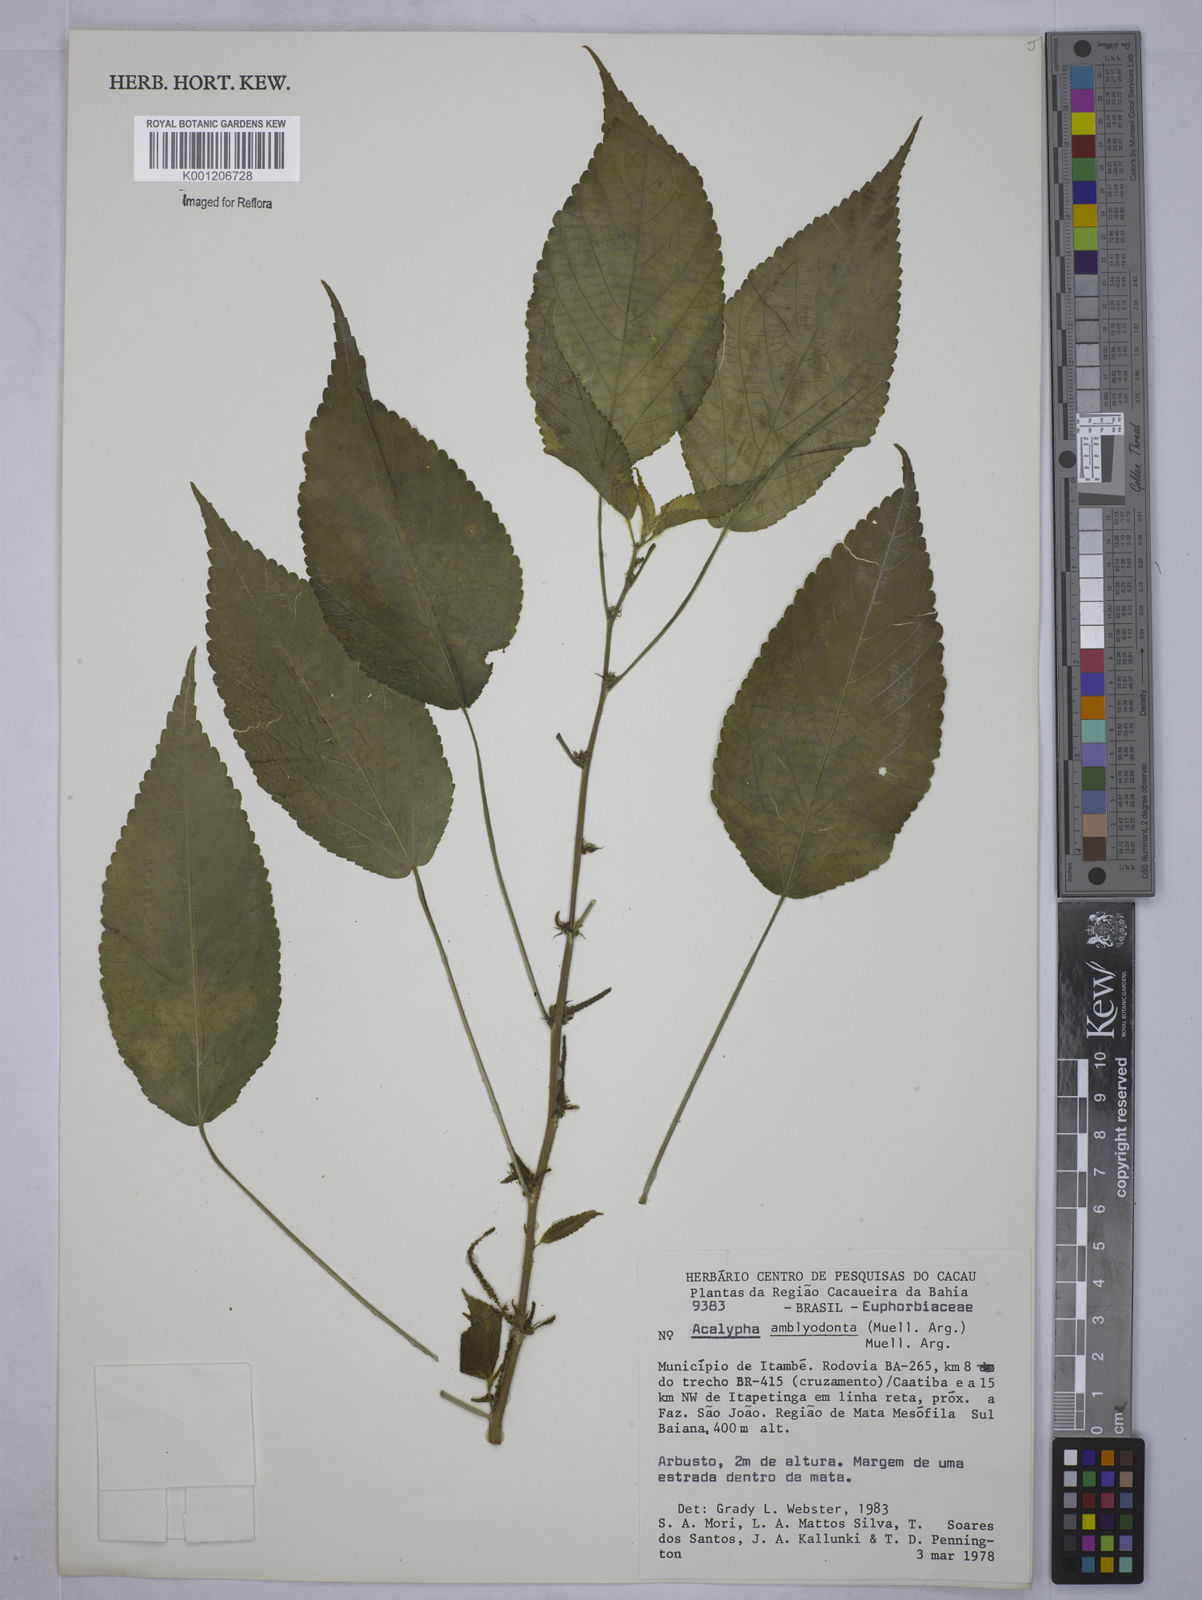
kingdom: Plantae
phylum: Tracheophyta
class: Magnoliopsida
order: Malpighiales
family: Euphorbiaceae
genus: Acalypha
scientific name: Acalypha
